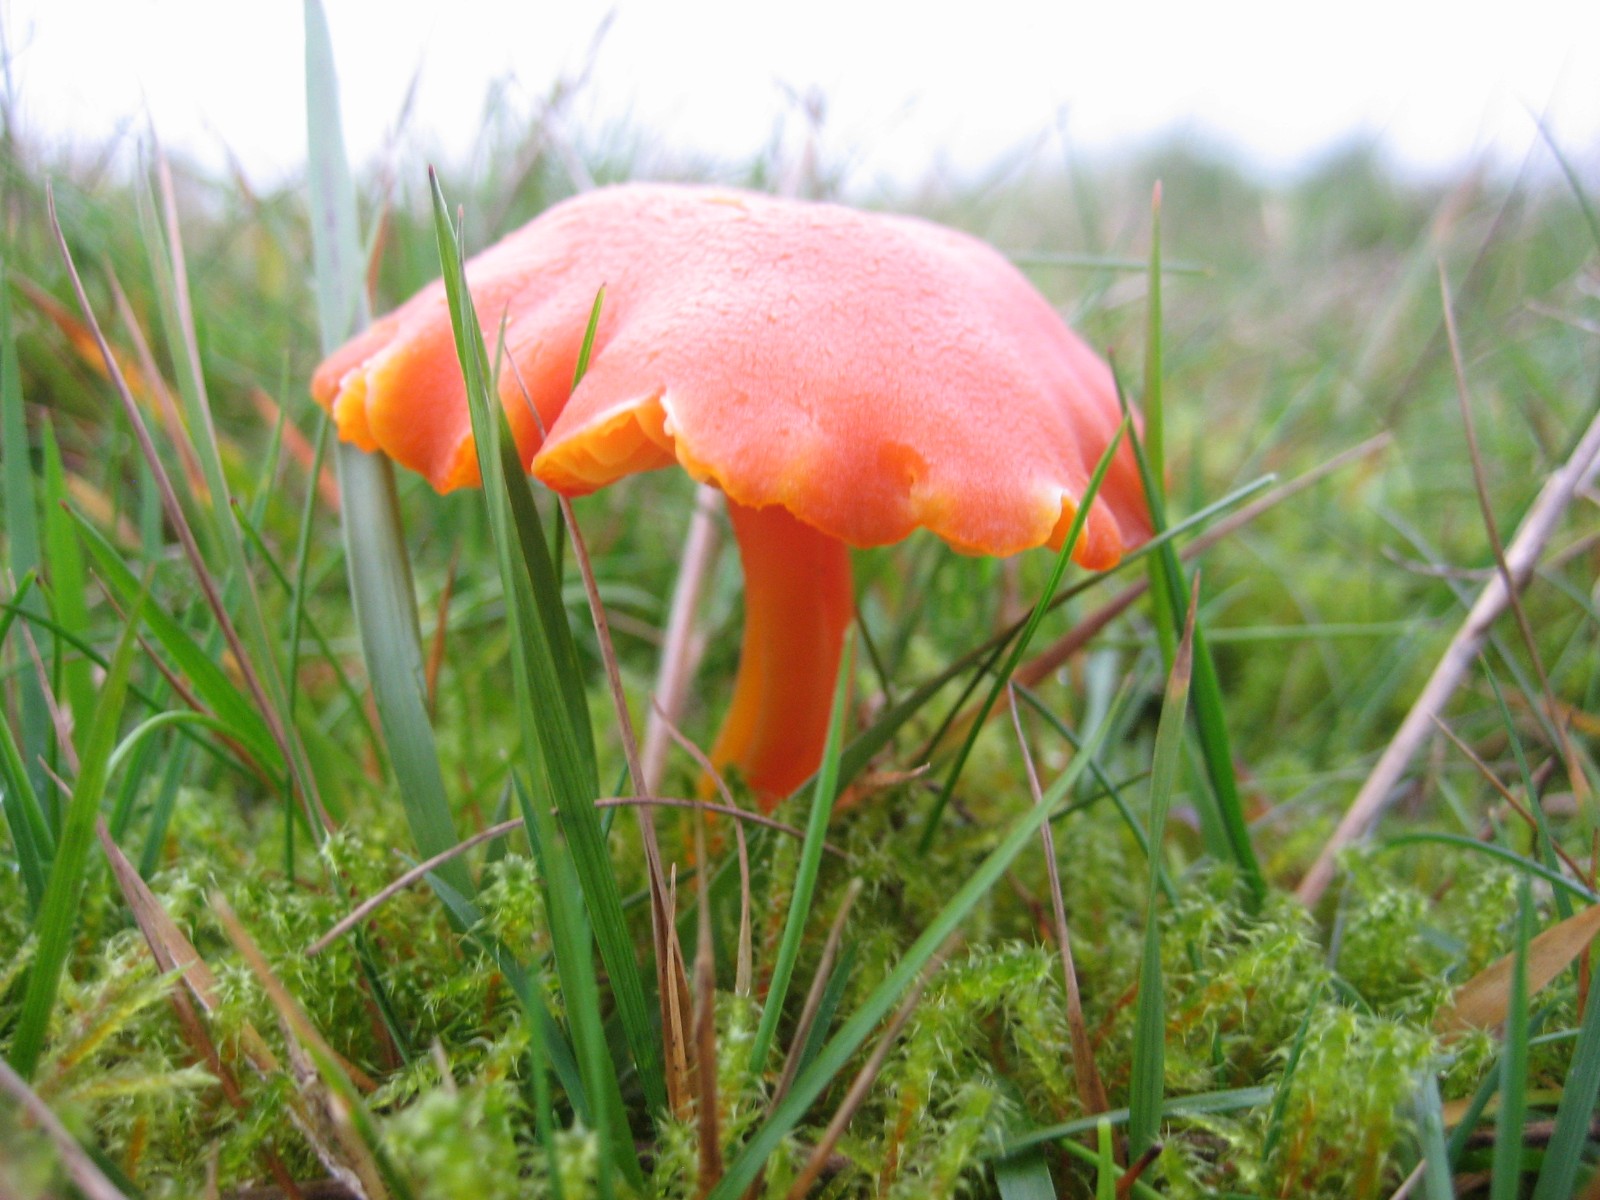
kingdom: Fungi
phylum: Basidiomycota
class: Agaricomycetes
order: Agaricales
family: Hygrophoraceae
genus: Hygrocybe
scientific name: Hygrocybe miniata
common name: mønje-vokshat
